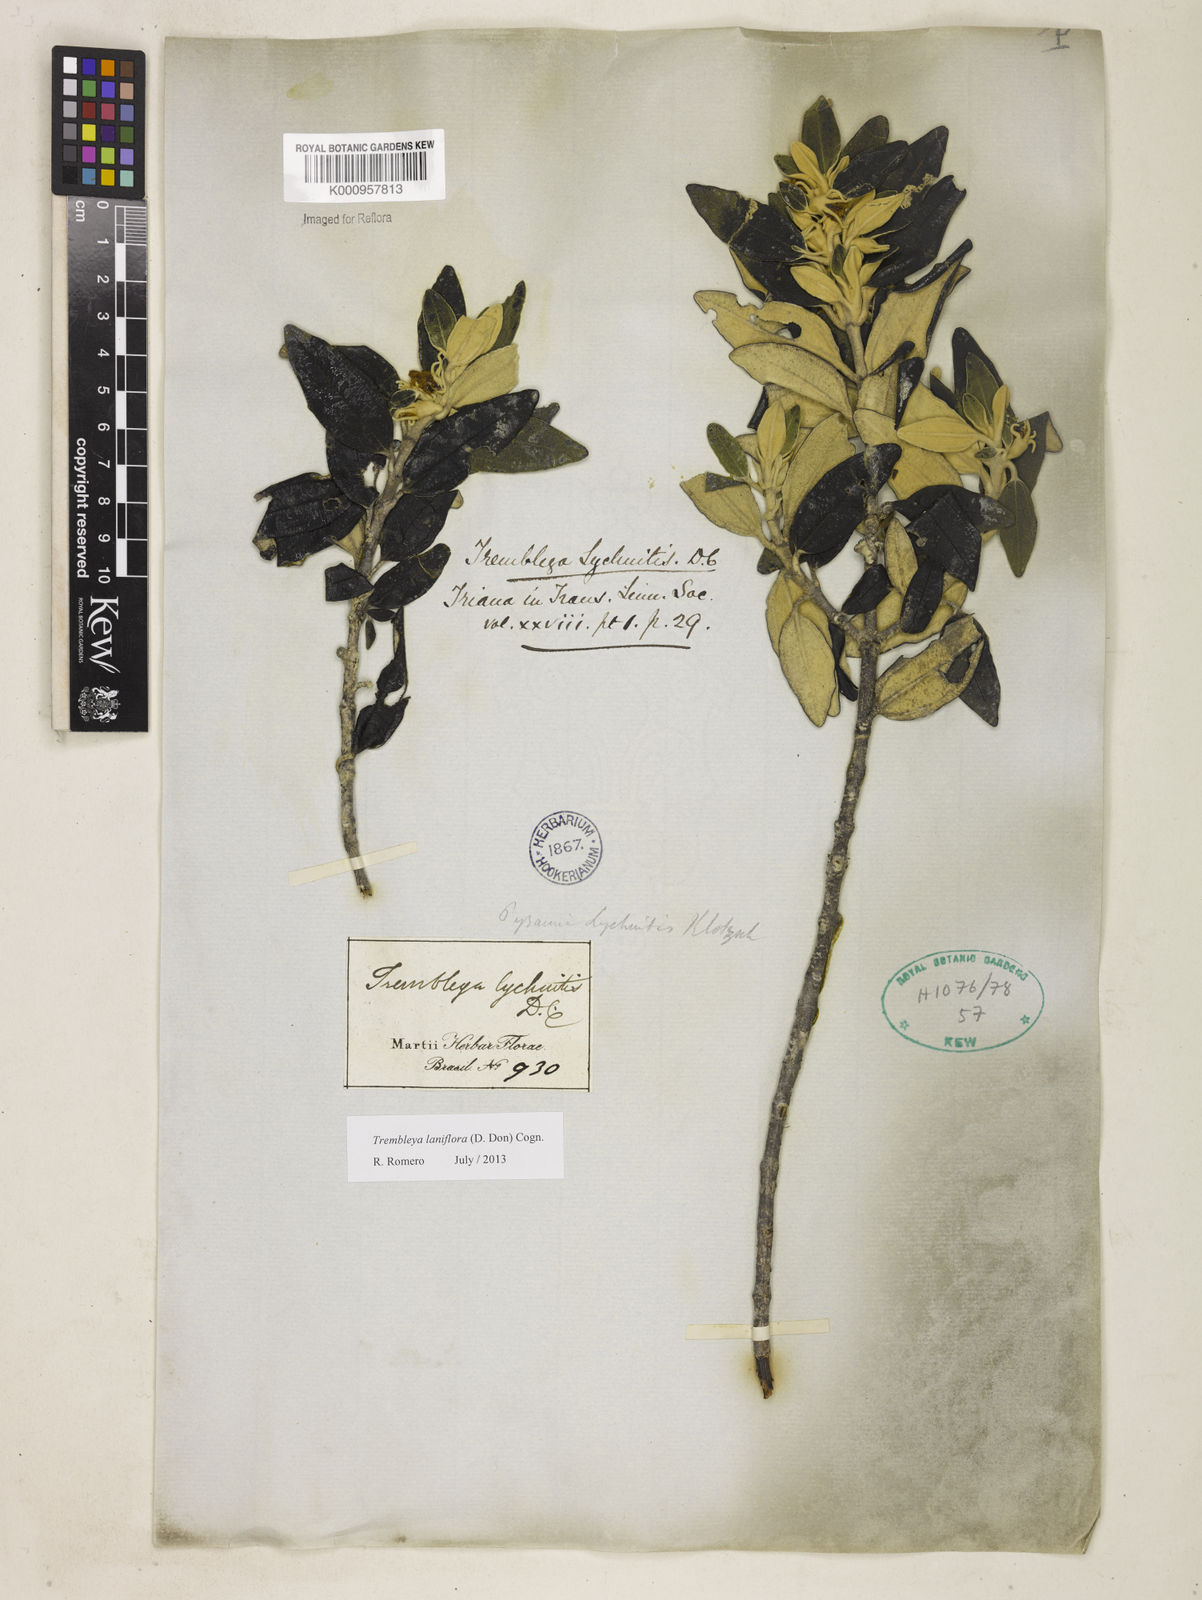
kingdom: Plantae
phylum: Tracheophyta
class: Magnoliopsida
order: Myrtales
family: Melastomataceae
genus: Microlicia
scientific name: Microlicia laniflora
